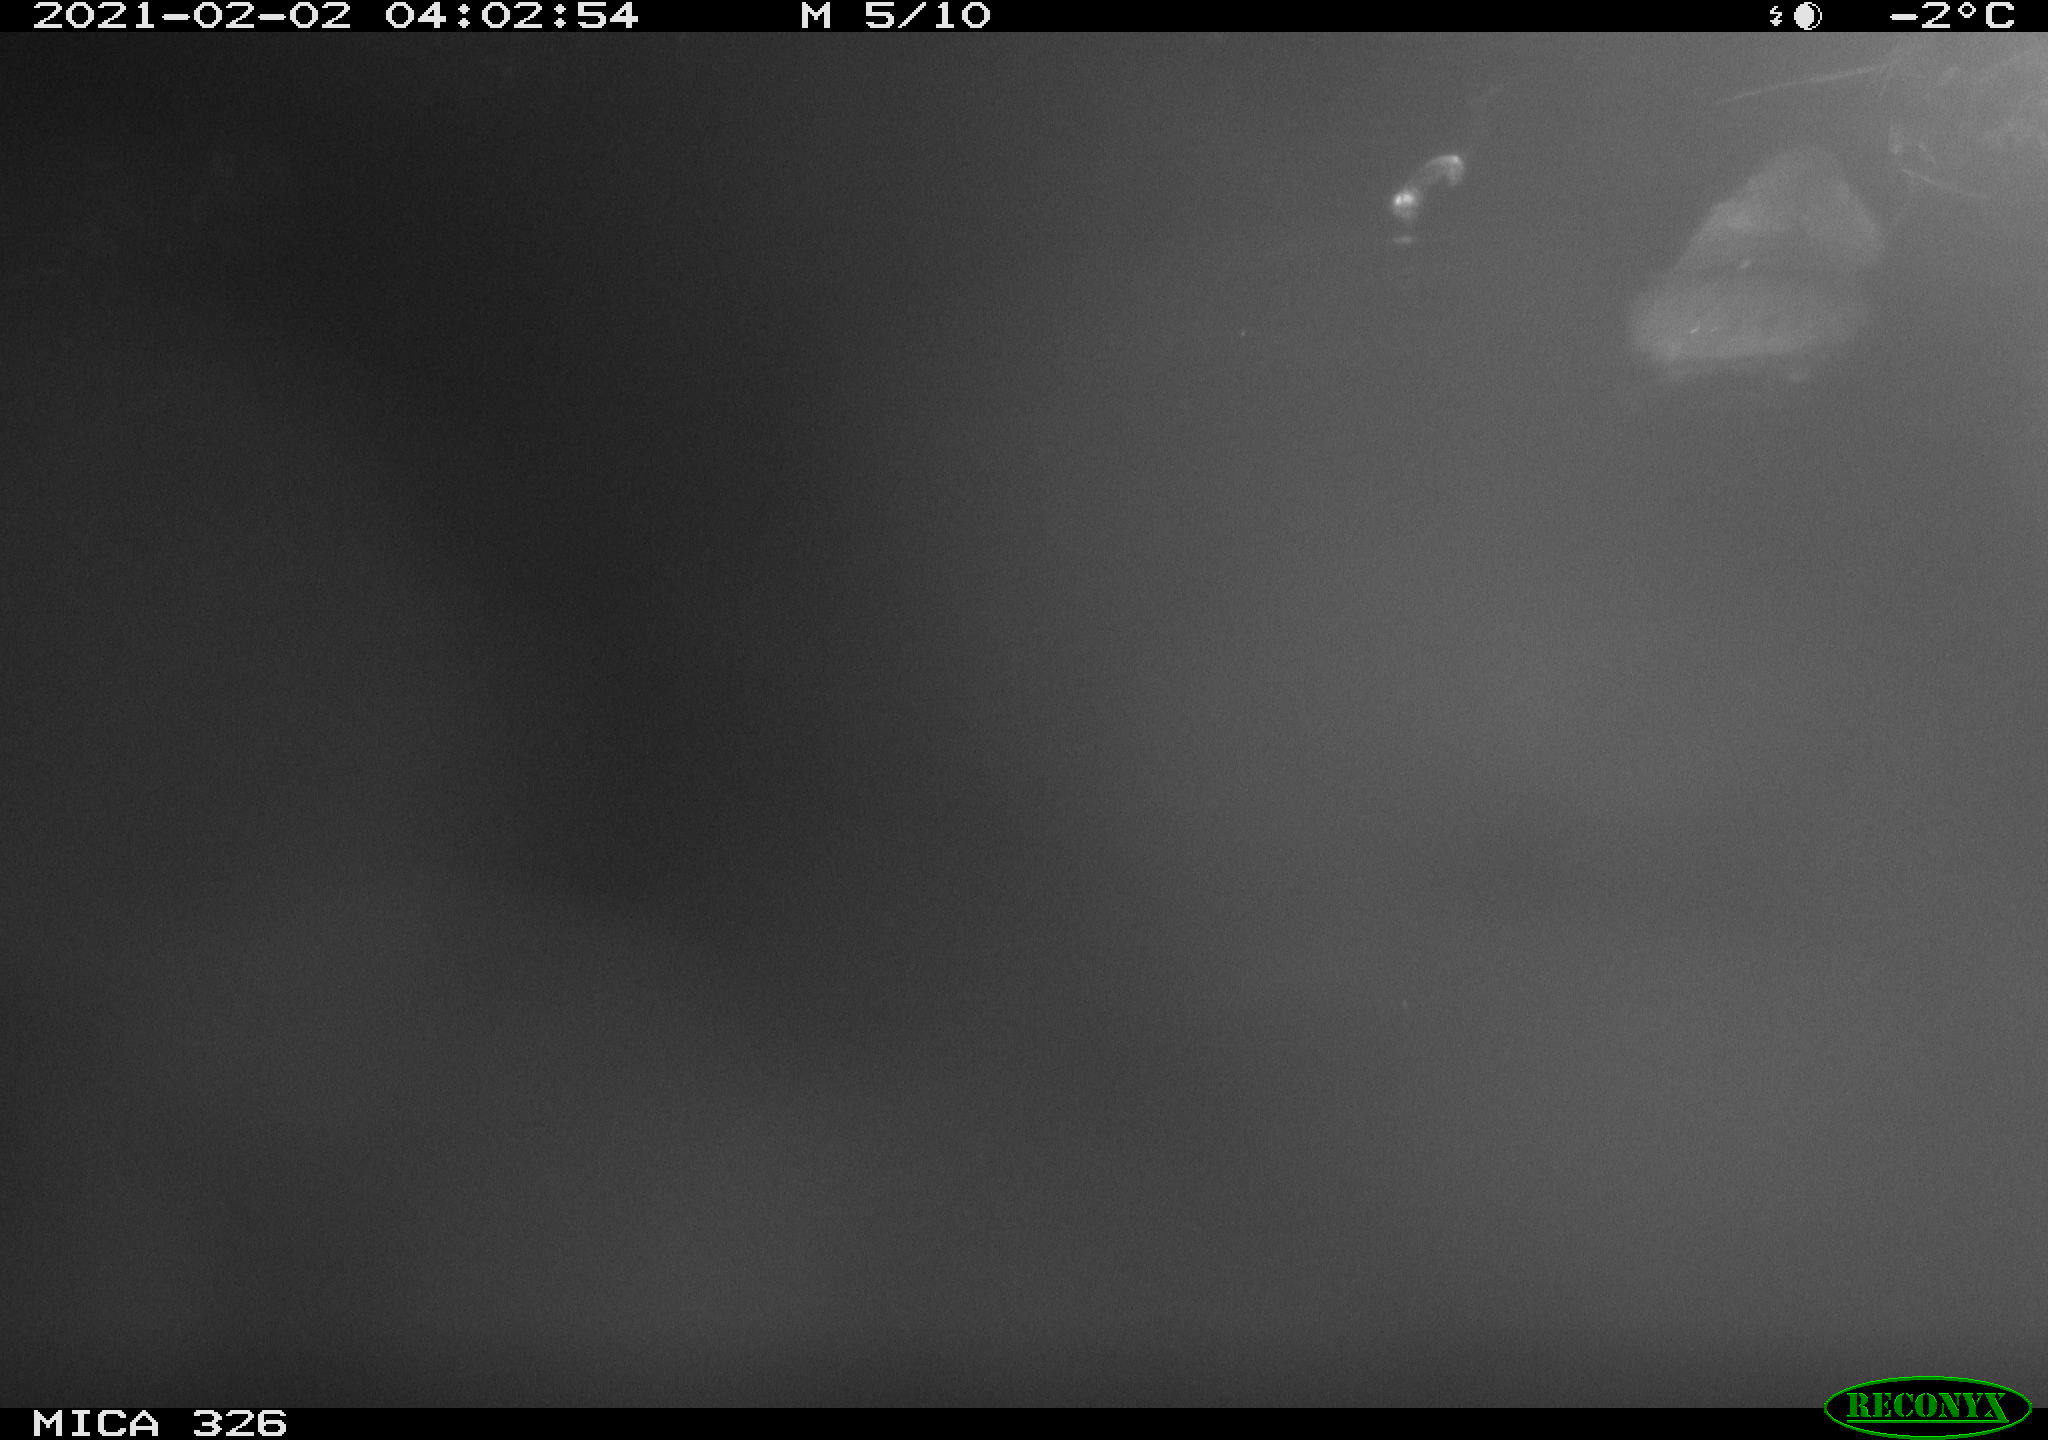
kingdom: Animalia
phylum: Chordata
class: Mammalia
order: Rodentia
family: Myocastoridae
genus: Myocastor
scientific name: Myocastor coypus
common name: Coypu
